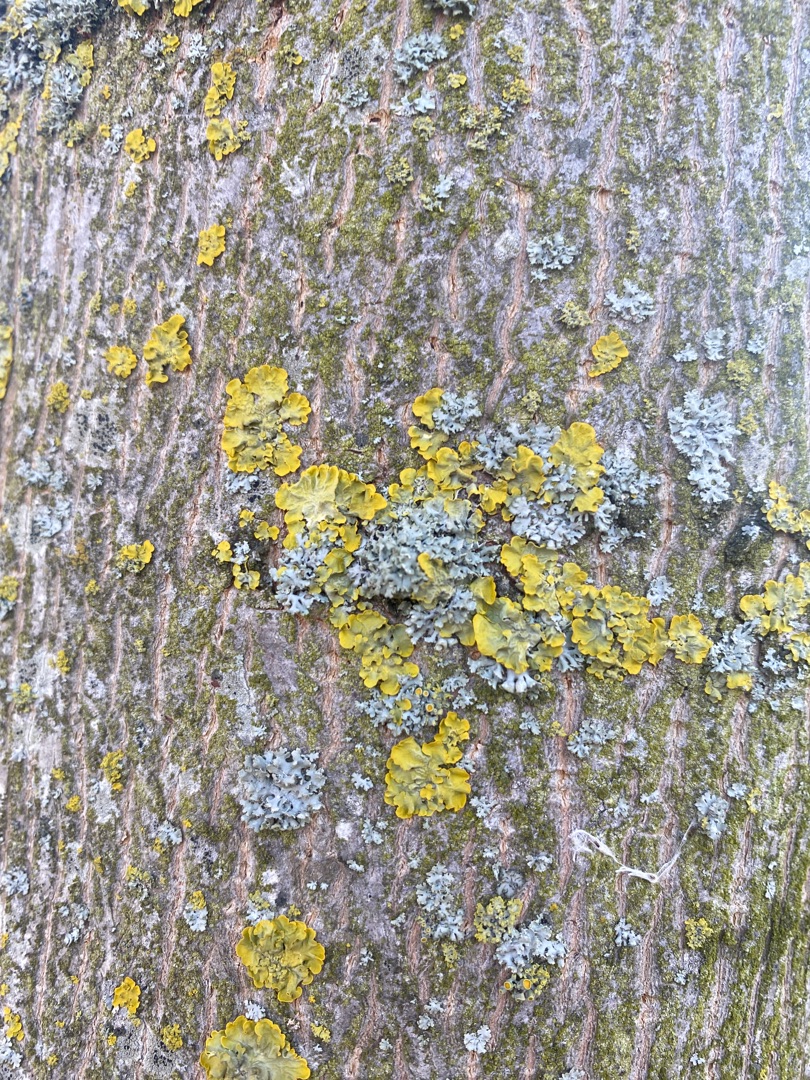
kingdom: Fungi
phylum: Ascomycota
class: Lecanoromycetes
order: Teloschistales
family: Teloschistaceae
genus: Xanthoria
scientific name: Xanthoria parietina
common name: Almindelig væggelav
